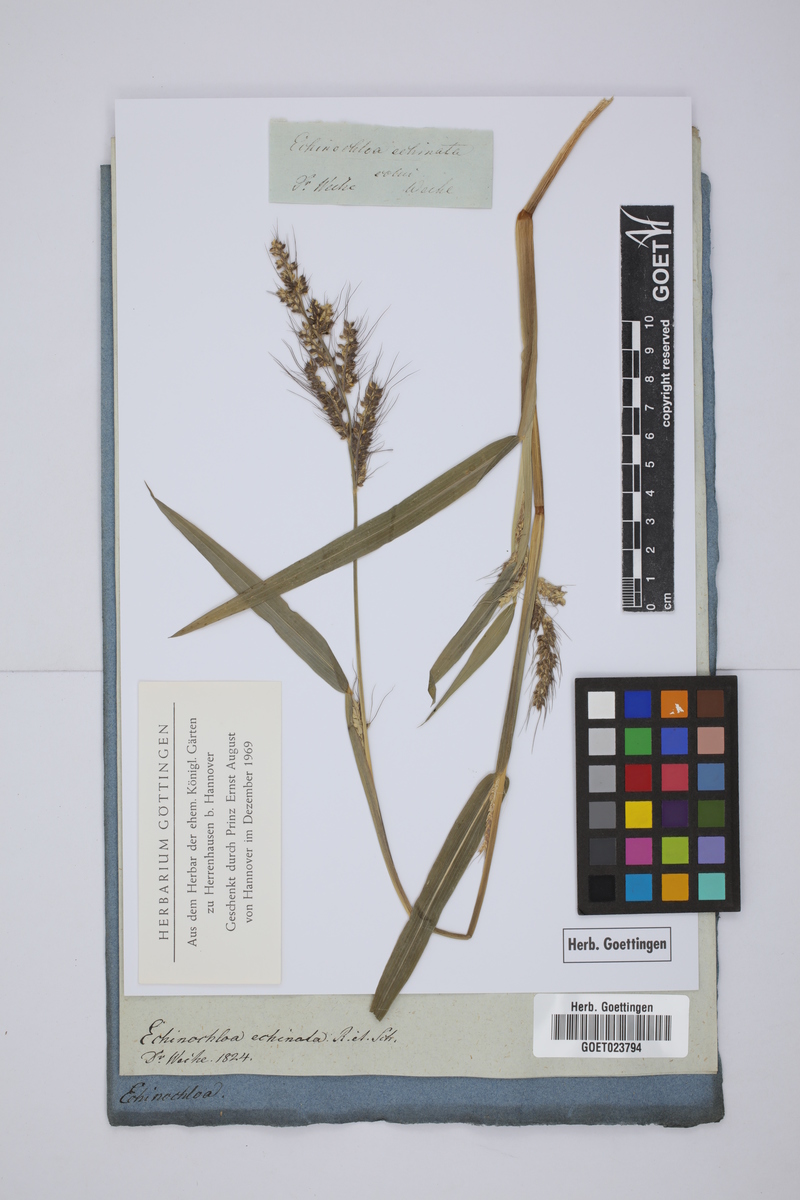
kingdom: Plantae
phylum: Tracheophyta
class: Liliopsida
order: Poales
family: Poaceae
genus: Echinochloa
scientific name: Echinochloa crus-galli
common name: Cockspur
